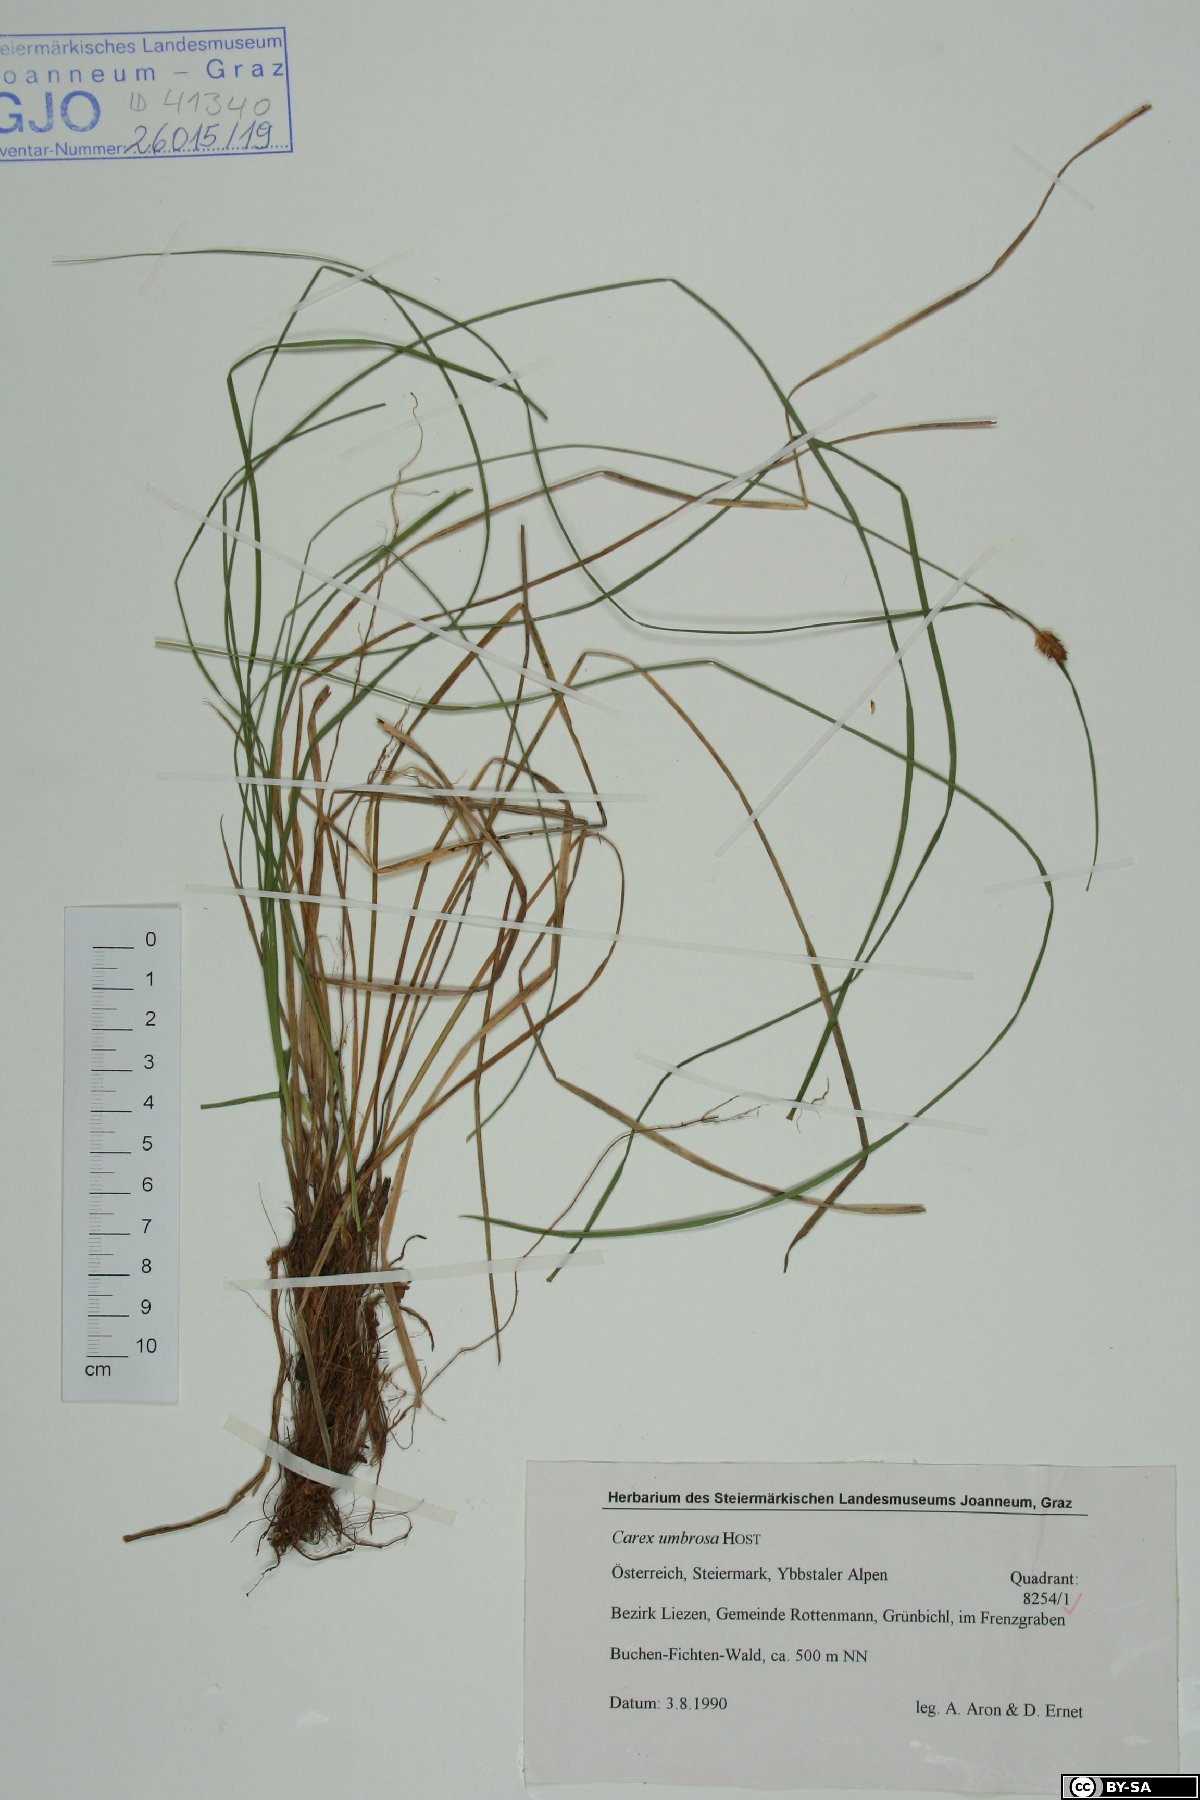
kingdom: Plantae
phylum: Tracheophyta
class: Liliopsida
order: Poales
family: Cyperaceae
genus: Carex
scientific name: Carex umbrosa
